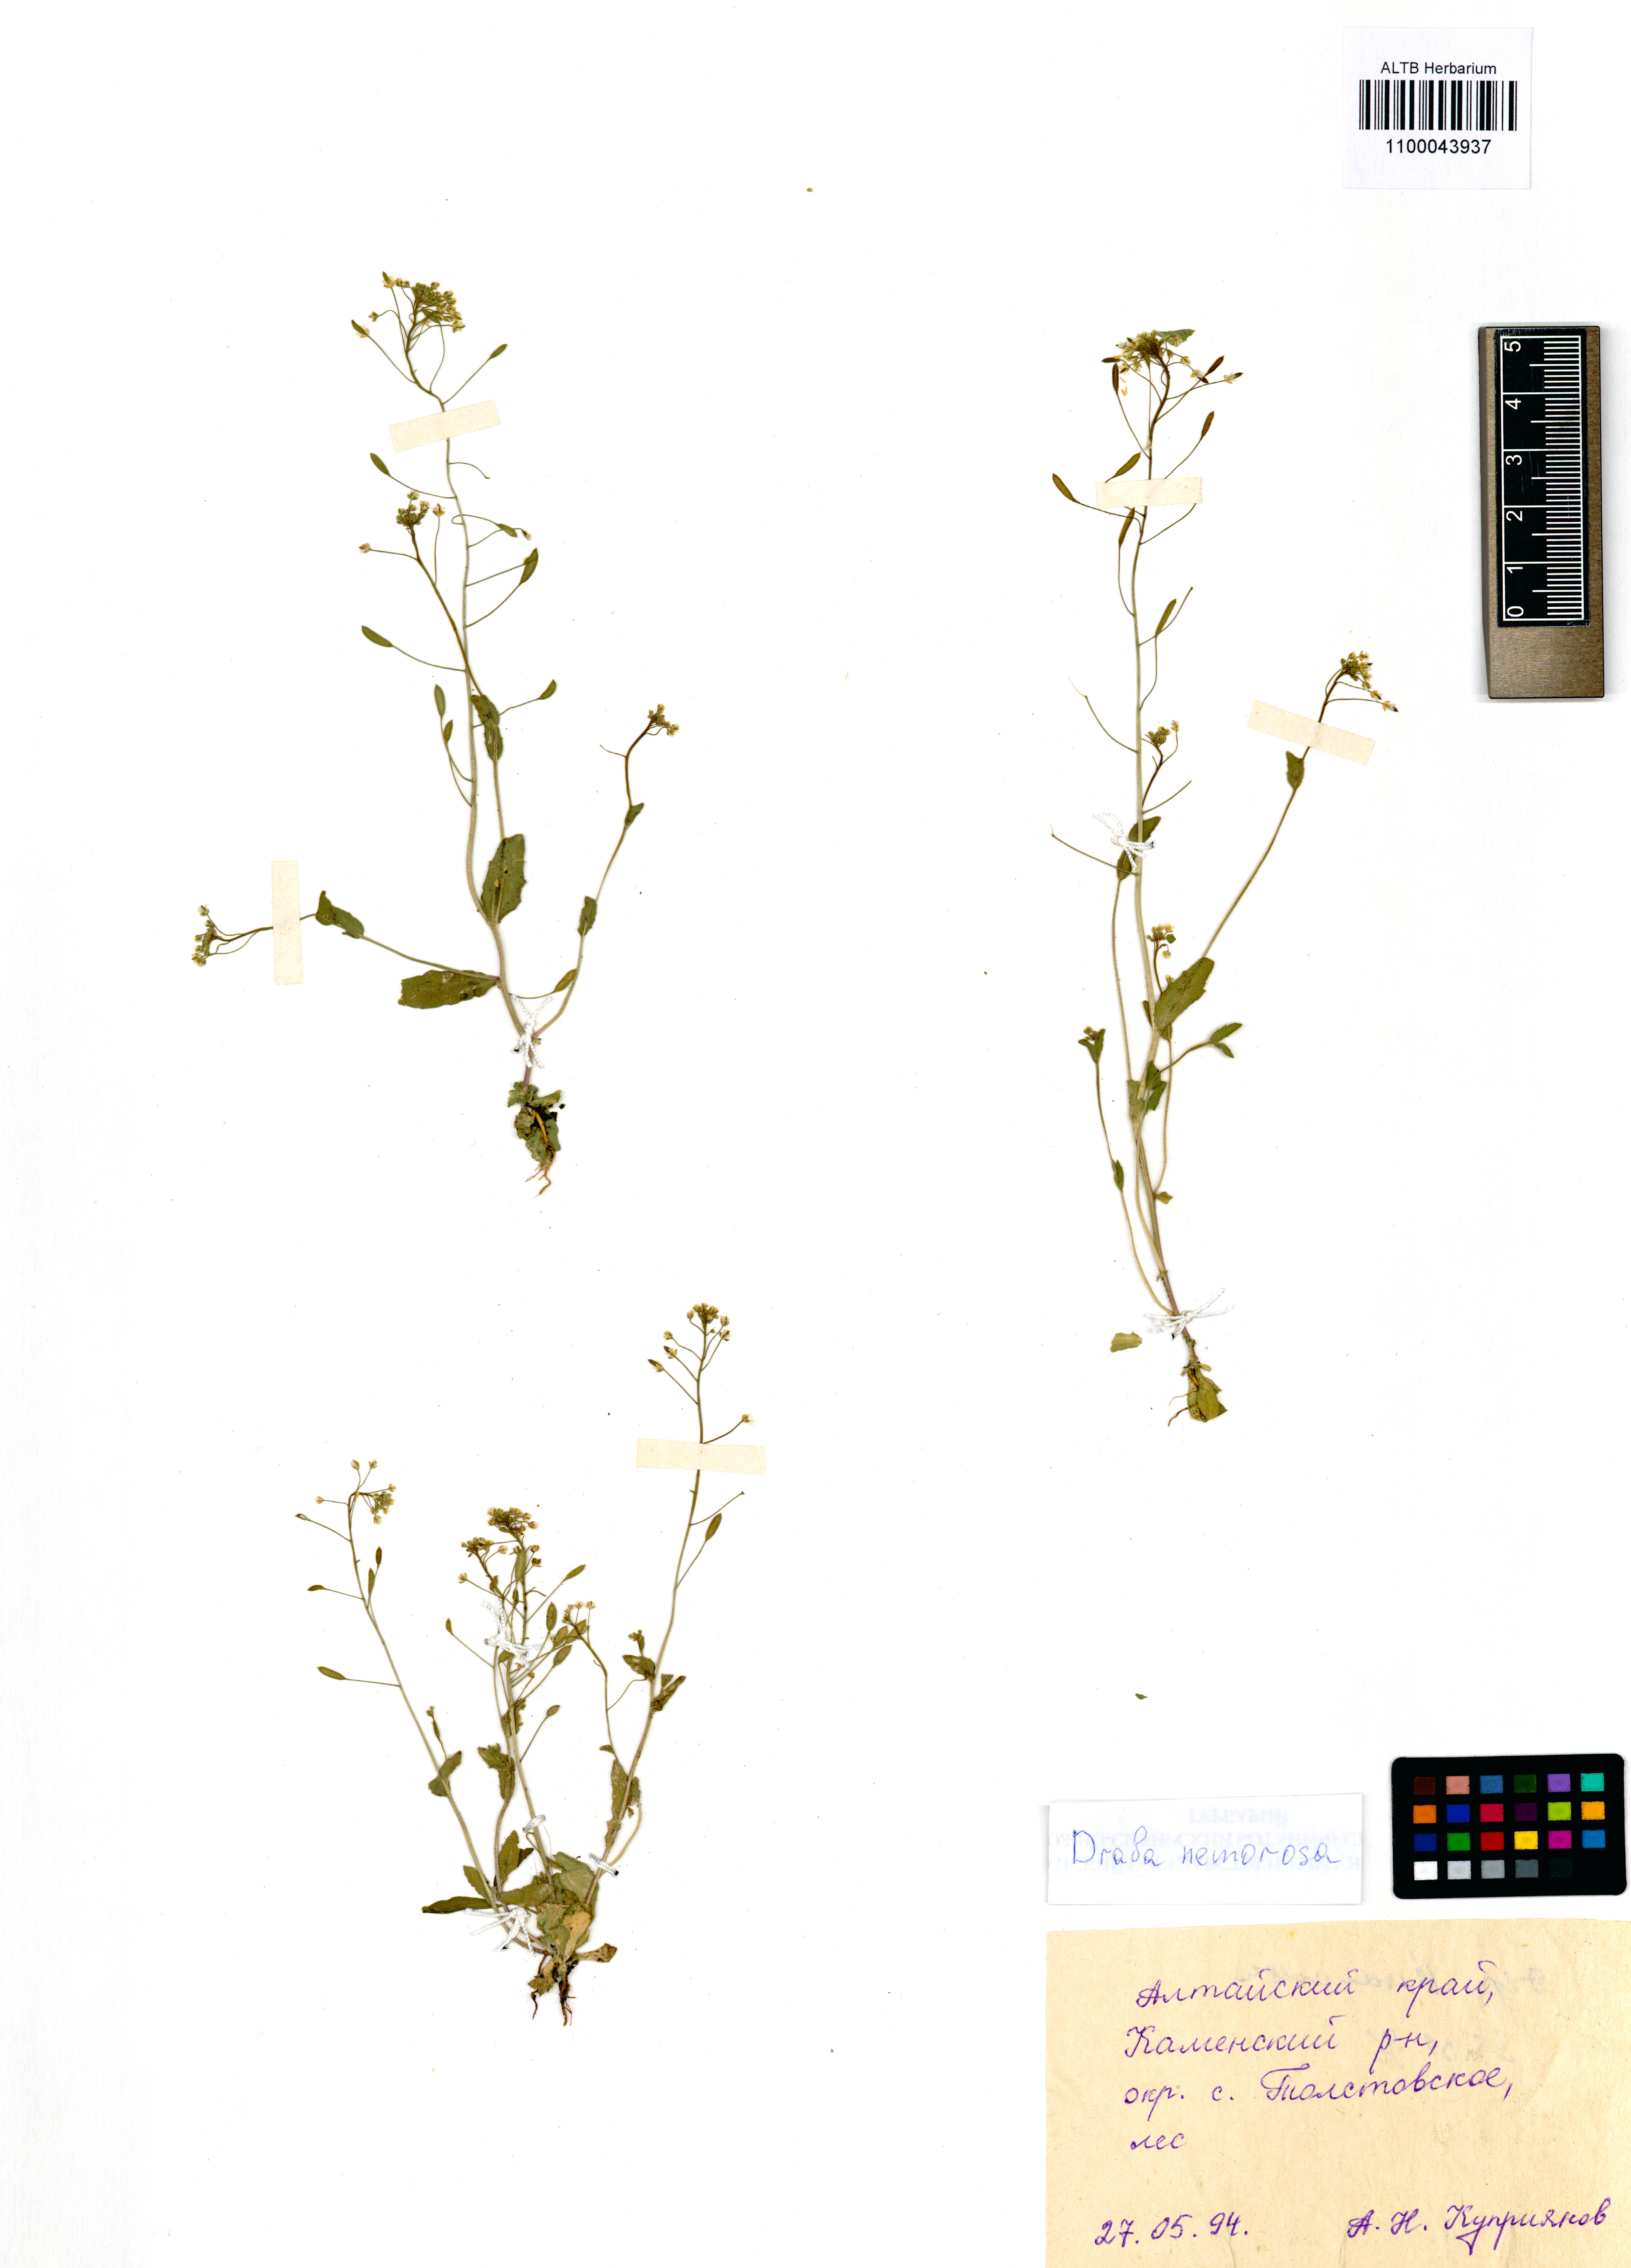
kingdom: Plantae
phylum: Tracheophyta
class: Magnoliopsida
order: Brassicales
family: Brassicaceae
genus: Draba
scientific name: Draba nemorosa
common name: Wood whitlow-grass
